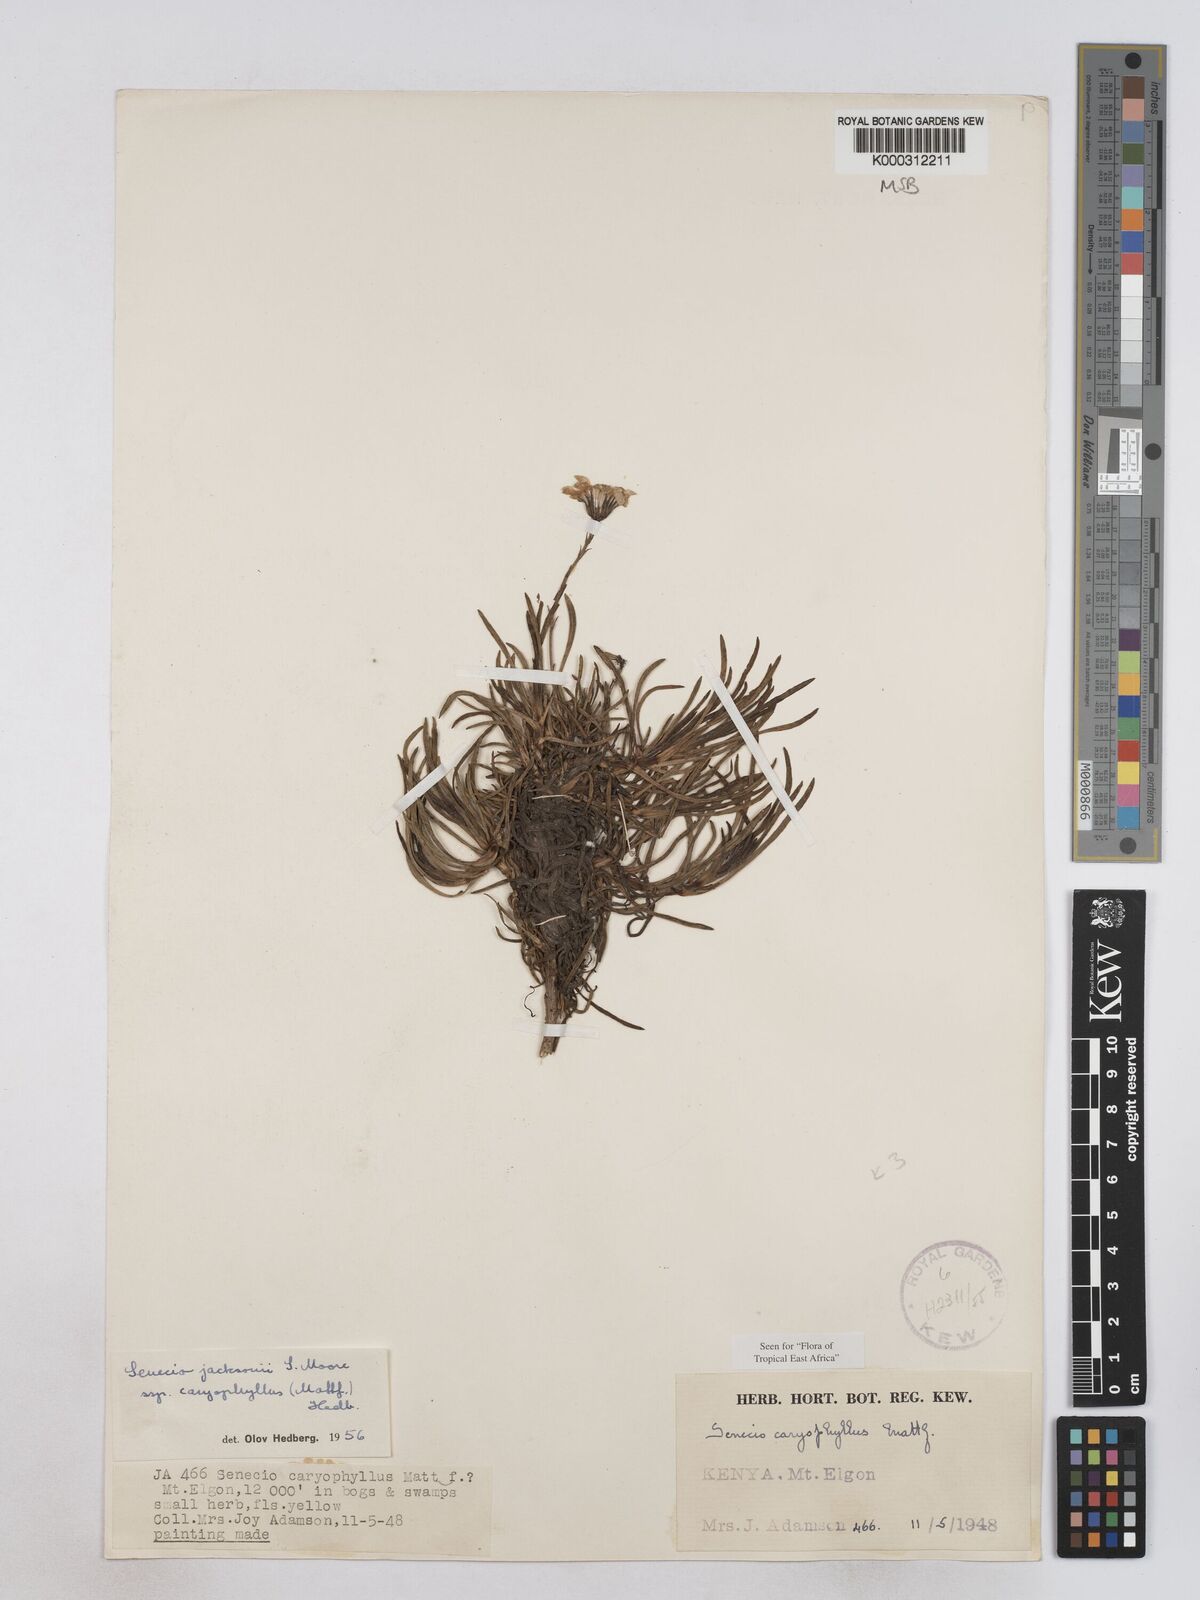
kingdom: Plantae
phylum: Tracheophyta
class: Magnoliopsida
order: Asterales
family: Asteraceae
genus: Senecio
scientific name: Senecio jacksonii
